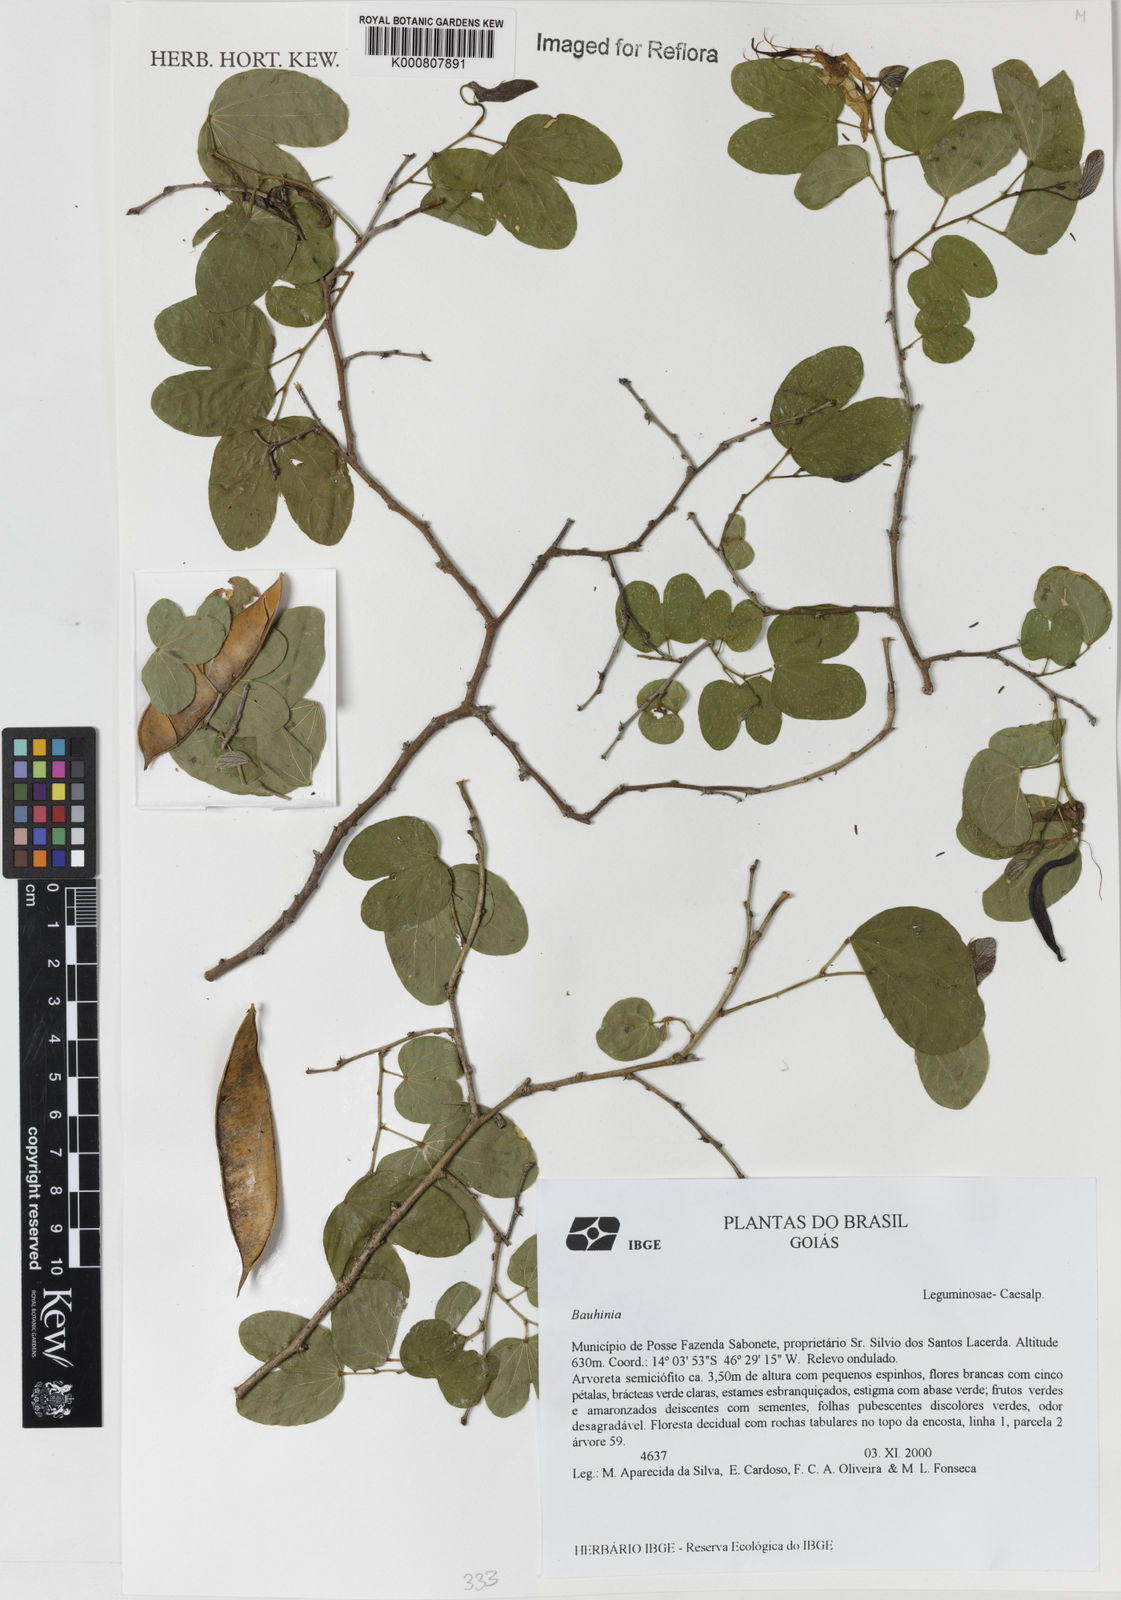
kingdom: Plantae
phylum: Tracheophyta
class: Magnoliopsida
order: Fabales
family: Fabaceae
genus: Bauhinia
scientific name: Bauhinia
